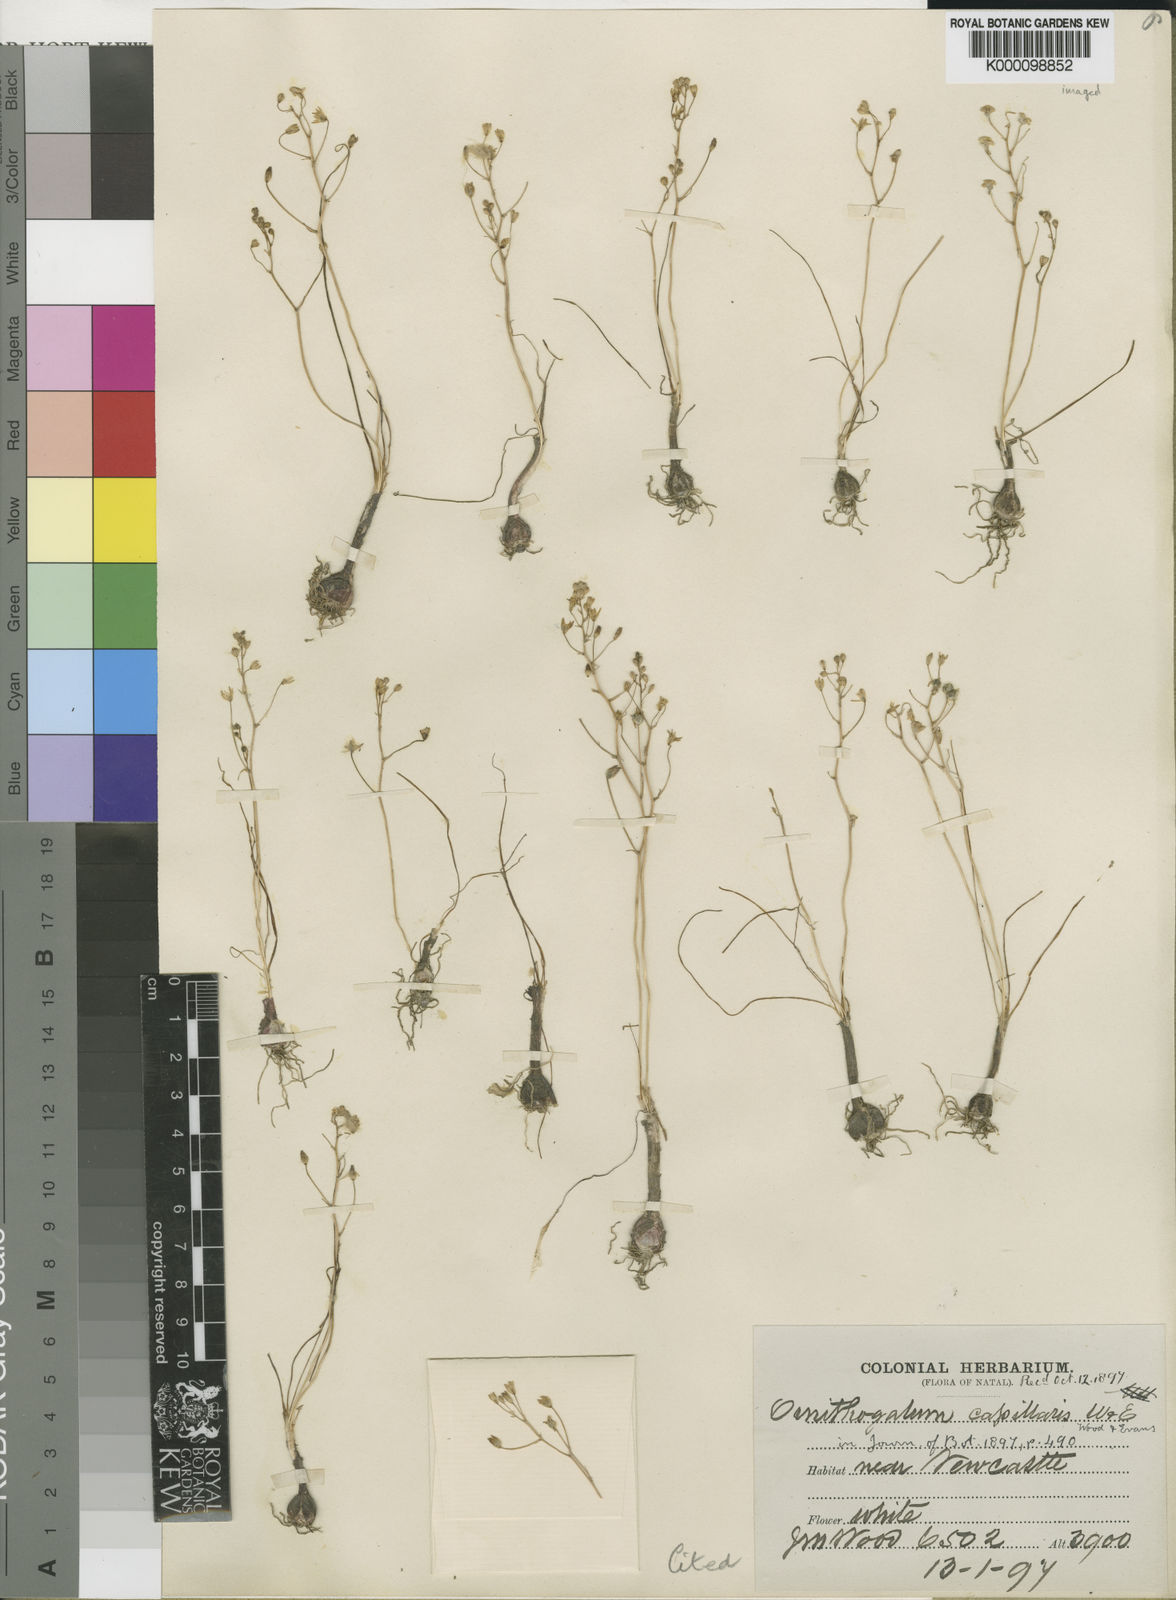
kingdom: Plantae
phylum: Tracheophyta
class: Liliopsida
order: Asparagales
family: Asparagaceae
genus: Ornithogalum
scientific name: Ornithogalum capillaris
